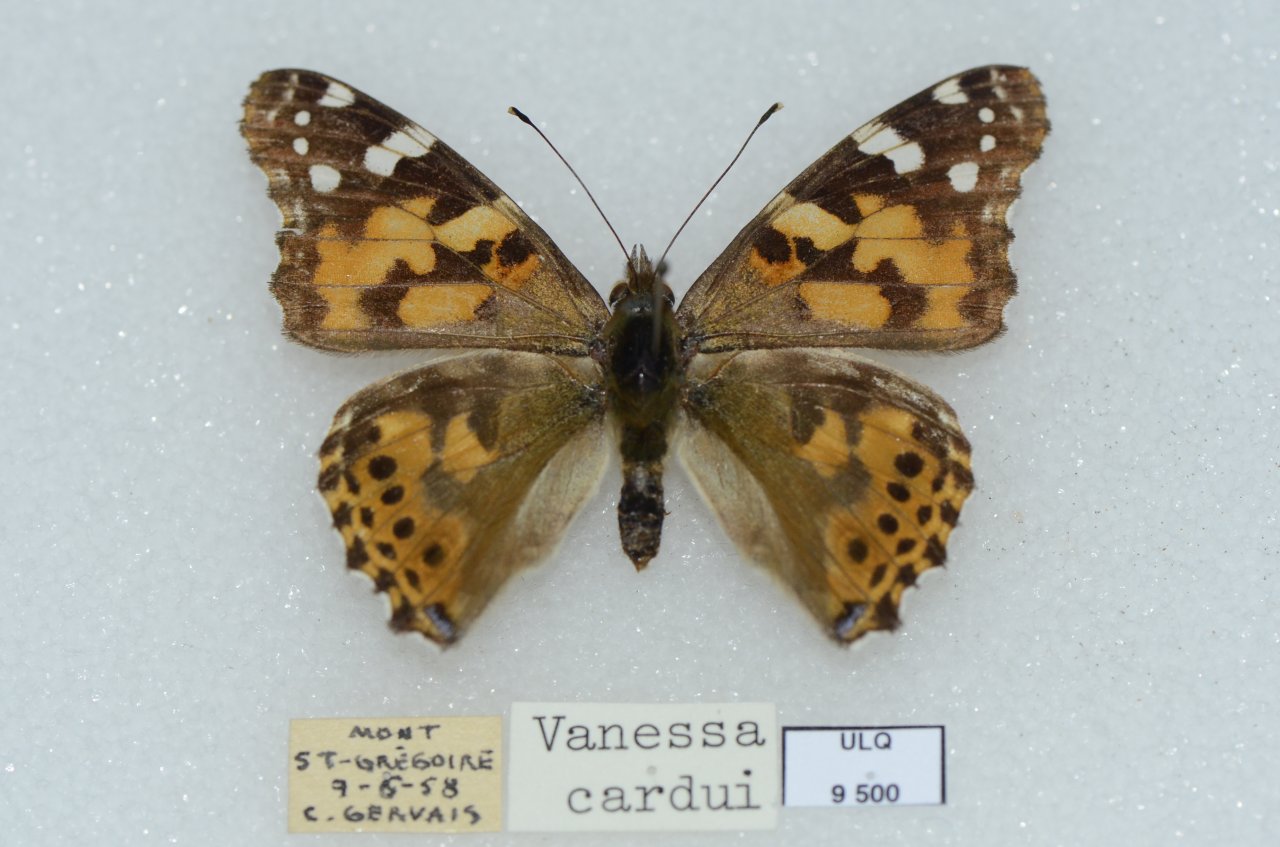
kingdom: Animalia
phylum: Arthropoda
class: Insecta
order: Lepidoptera
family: Nymphalidae
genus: Vanessa
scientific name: Vanessa cardui
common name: Painted Lady
